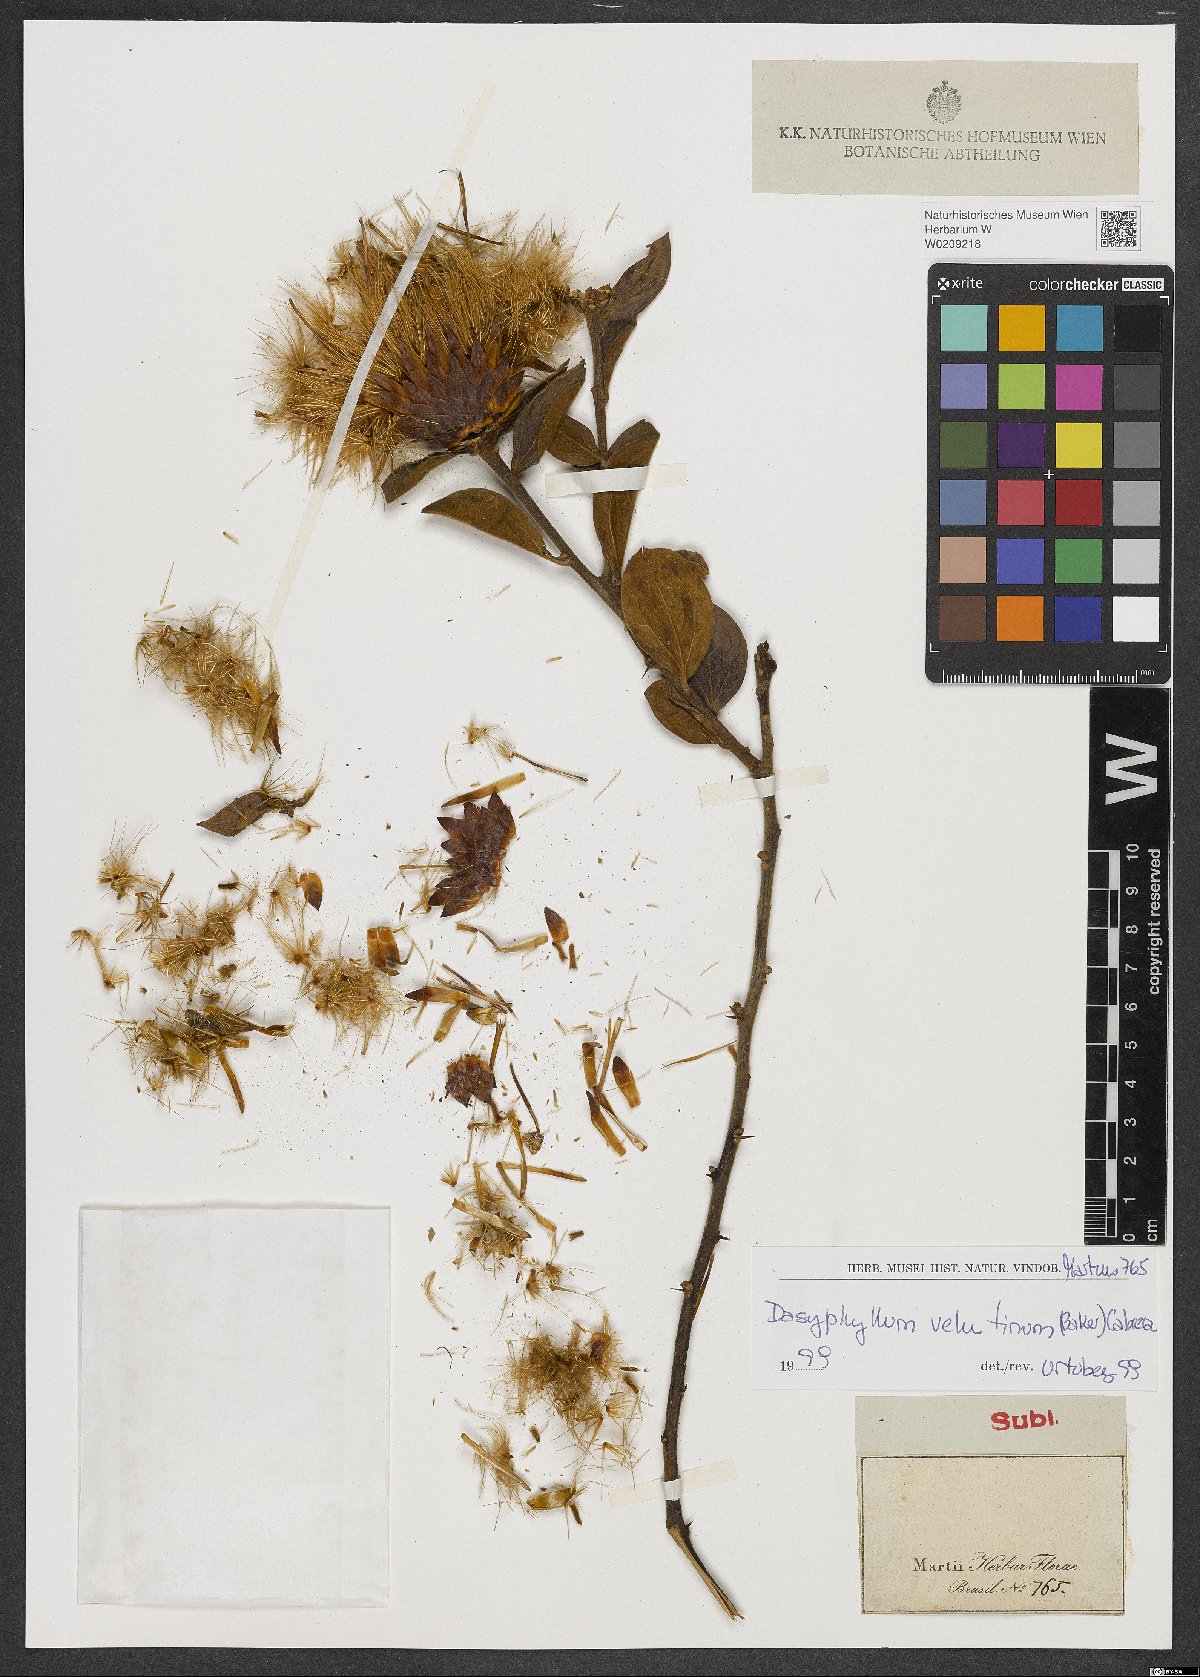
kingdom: Plantae
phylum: Tracheophyta
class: Magnoliopsida
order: Asterales
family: Asteraceae
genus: Dasyphyllum
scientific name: Dasyphyllum velutinum
